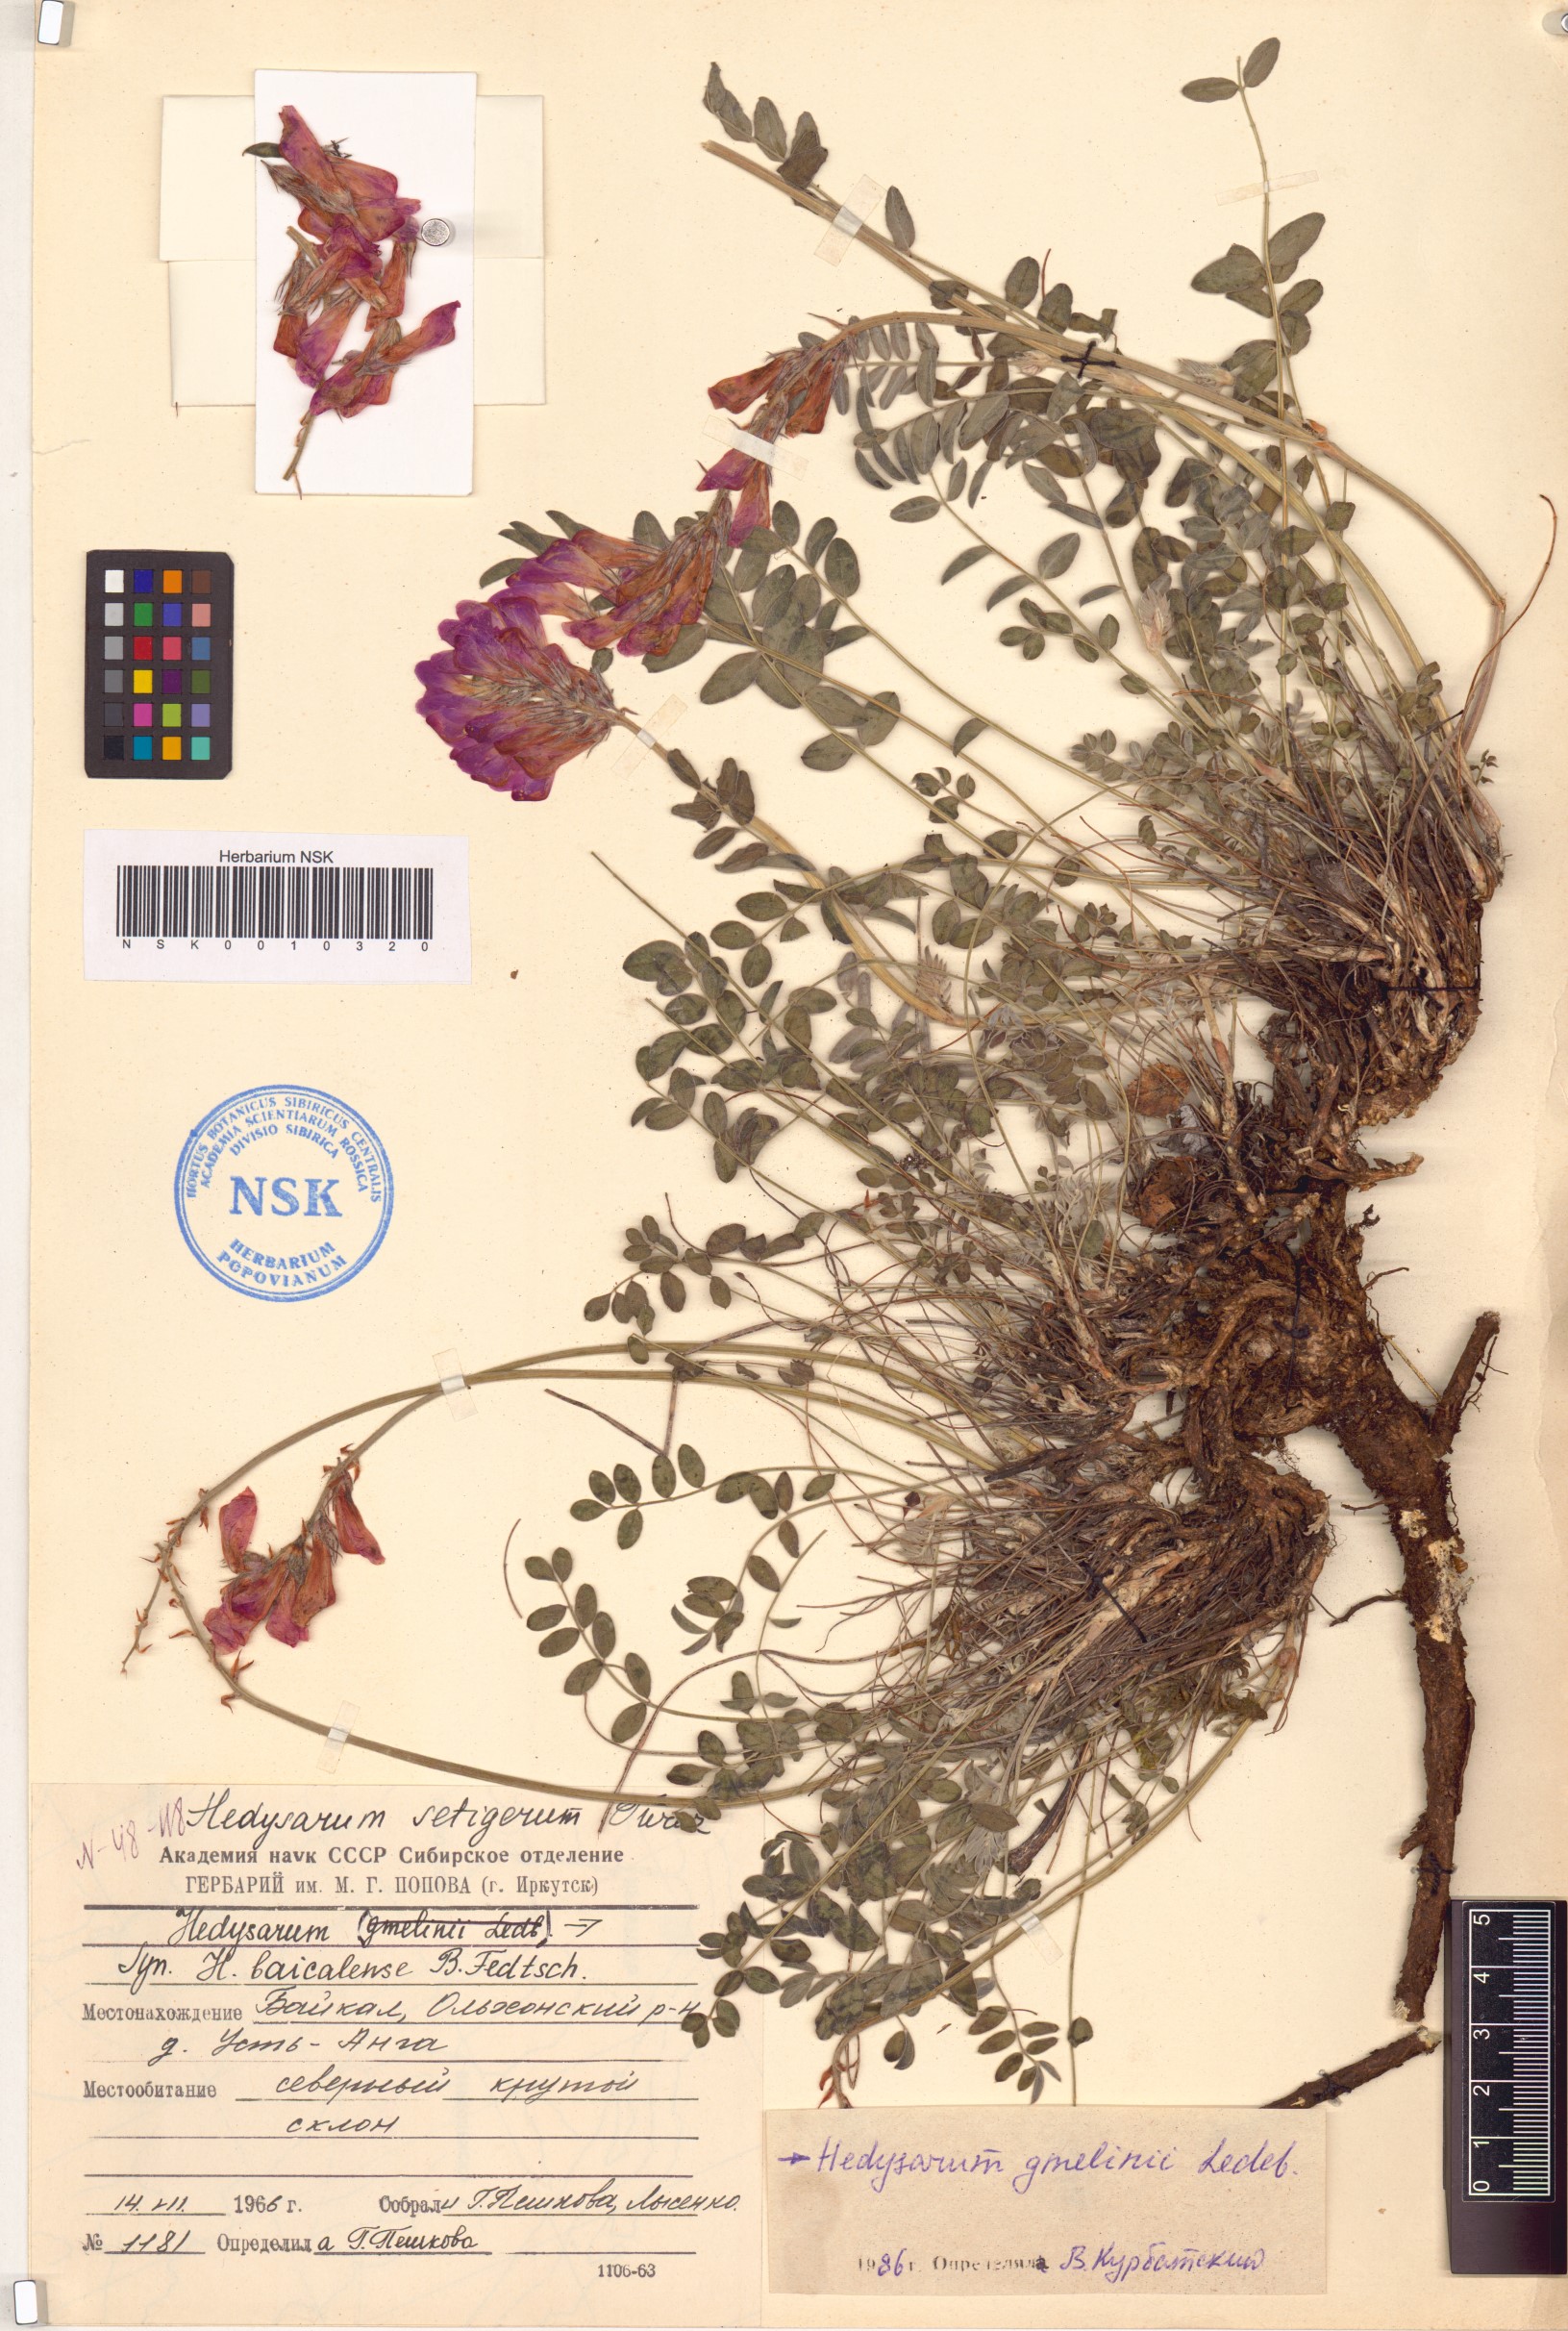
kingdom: Plantae
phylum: Tracheophyta
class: Magnoliopsida
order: Fabales
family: Fabaceae
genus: Hedysarum
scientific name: Hedysarum gmelinii
